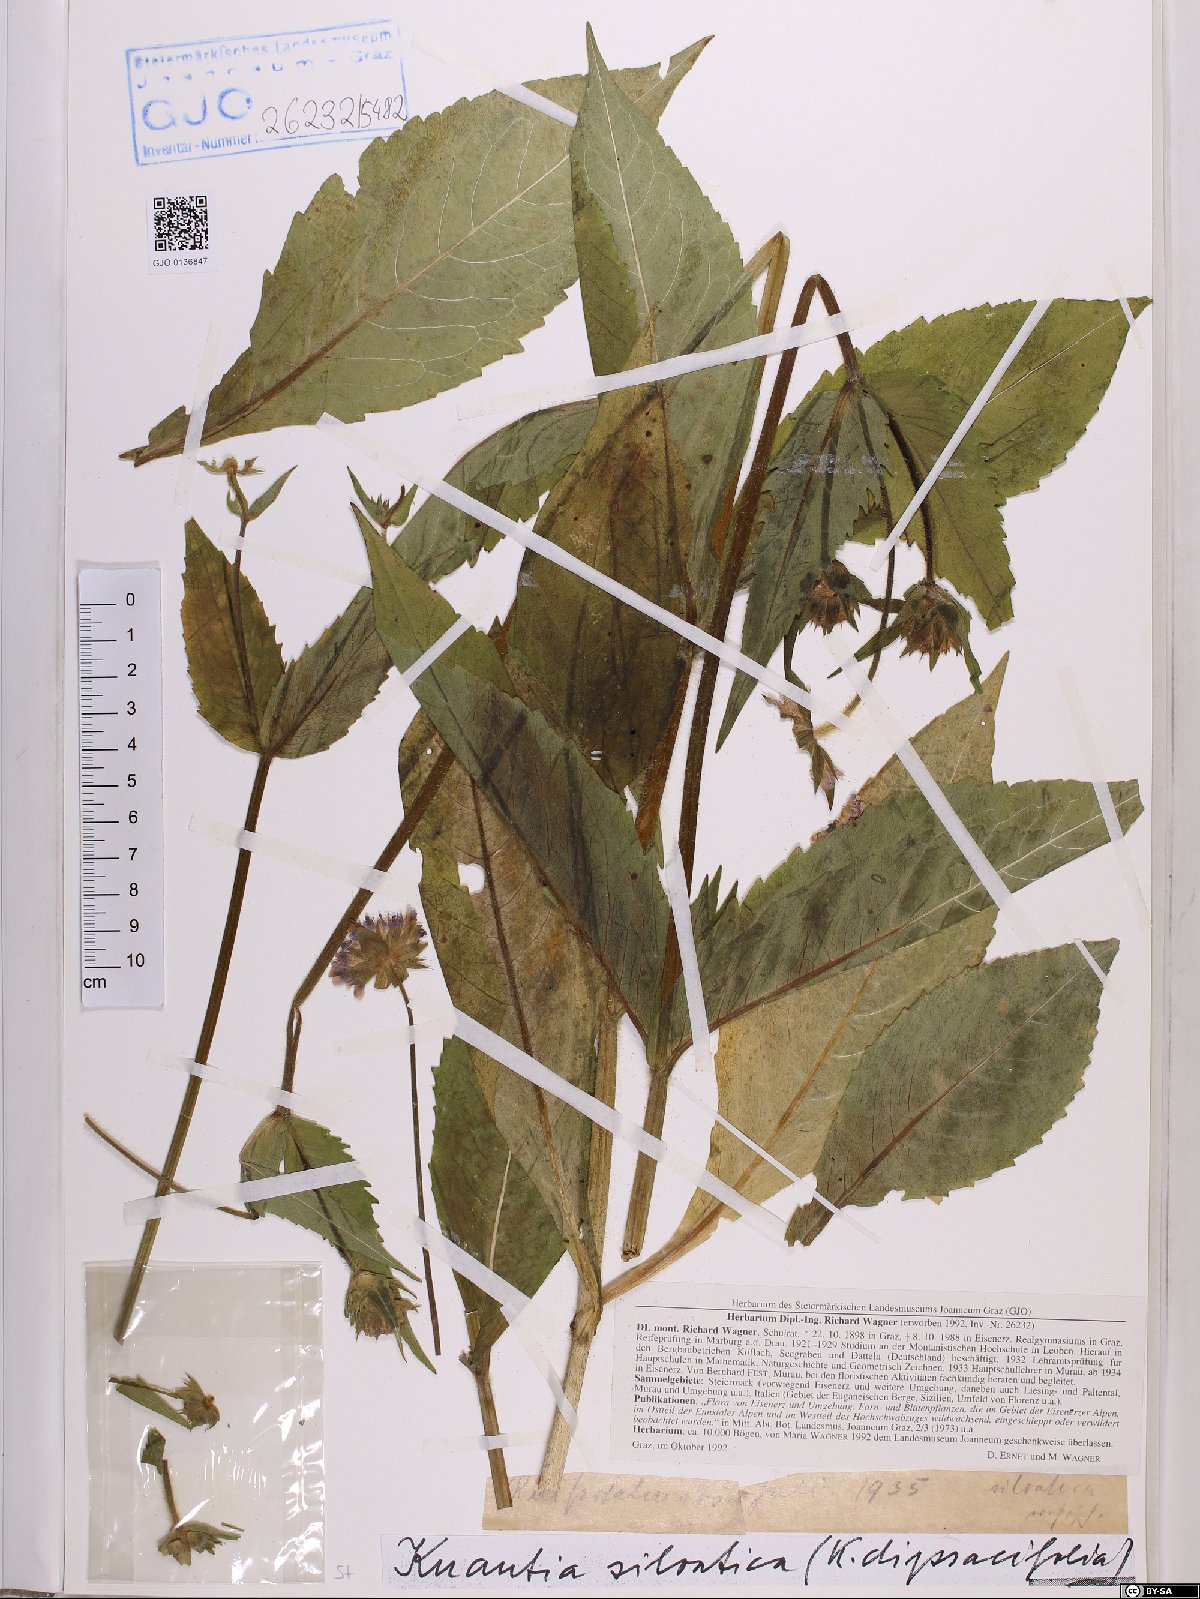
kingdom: Plantae
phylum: Tracheophyta
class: Magnoliopsida
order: Dipsacales
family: Caprifoliaceae
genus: Knautia
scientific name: Knautia drymeia
